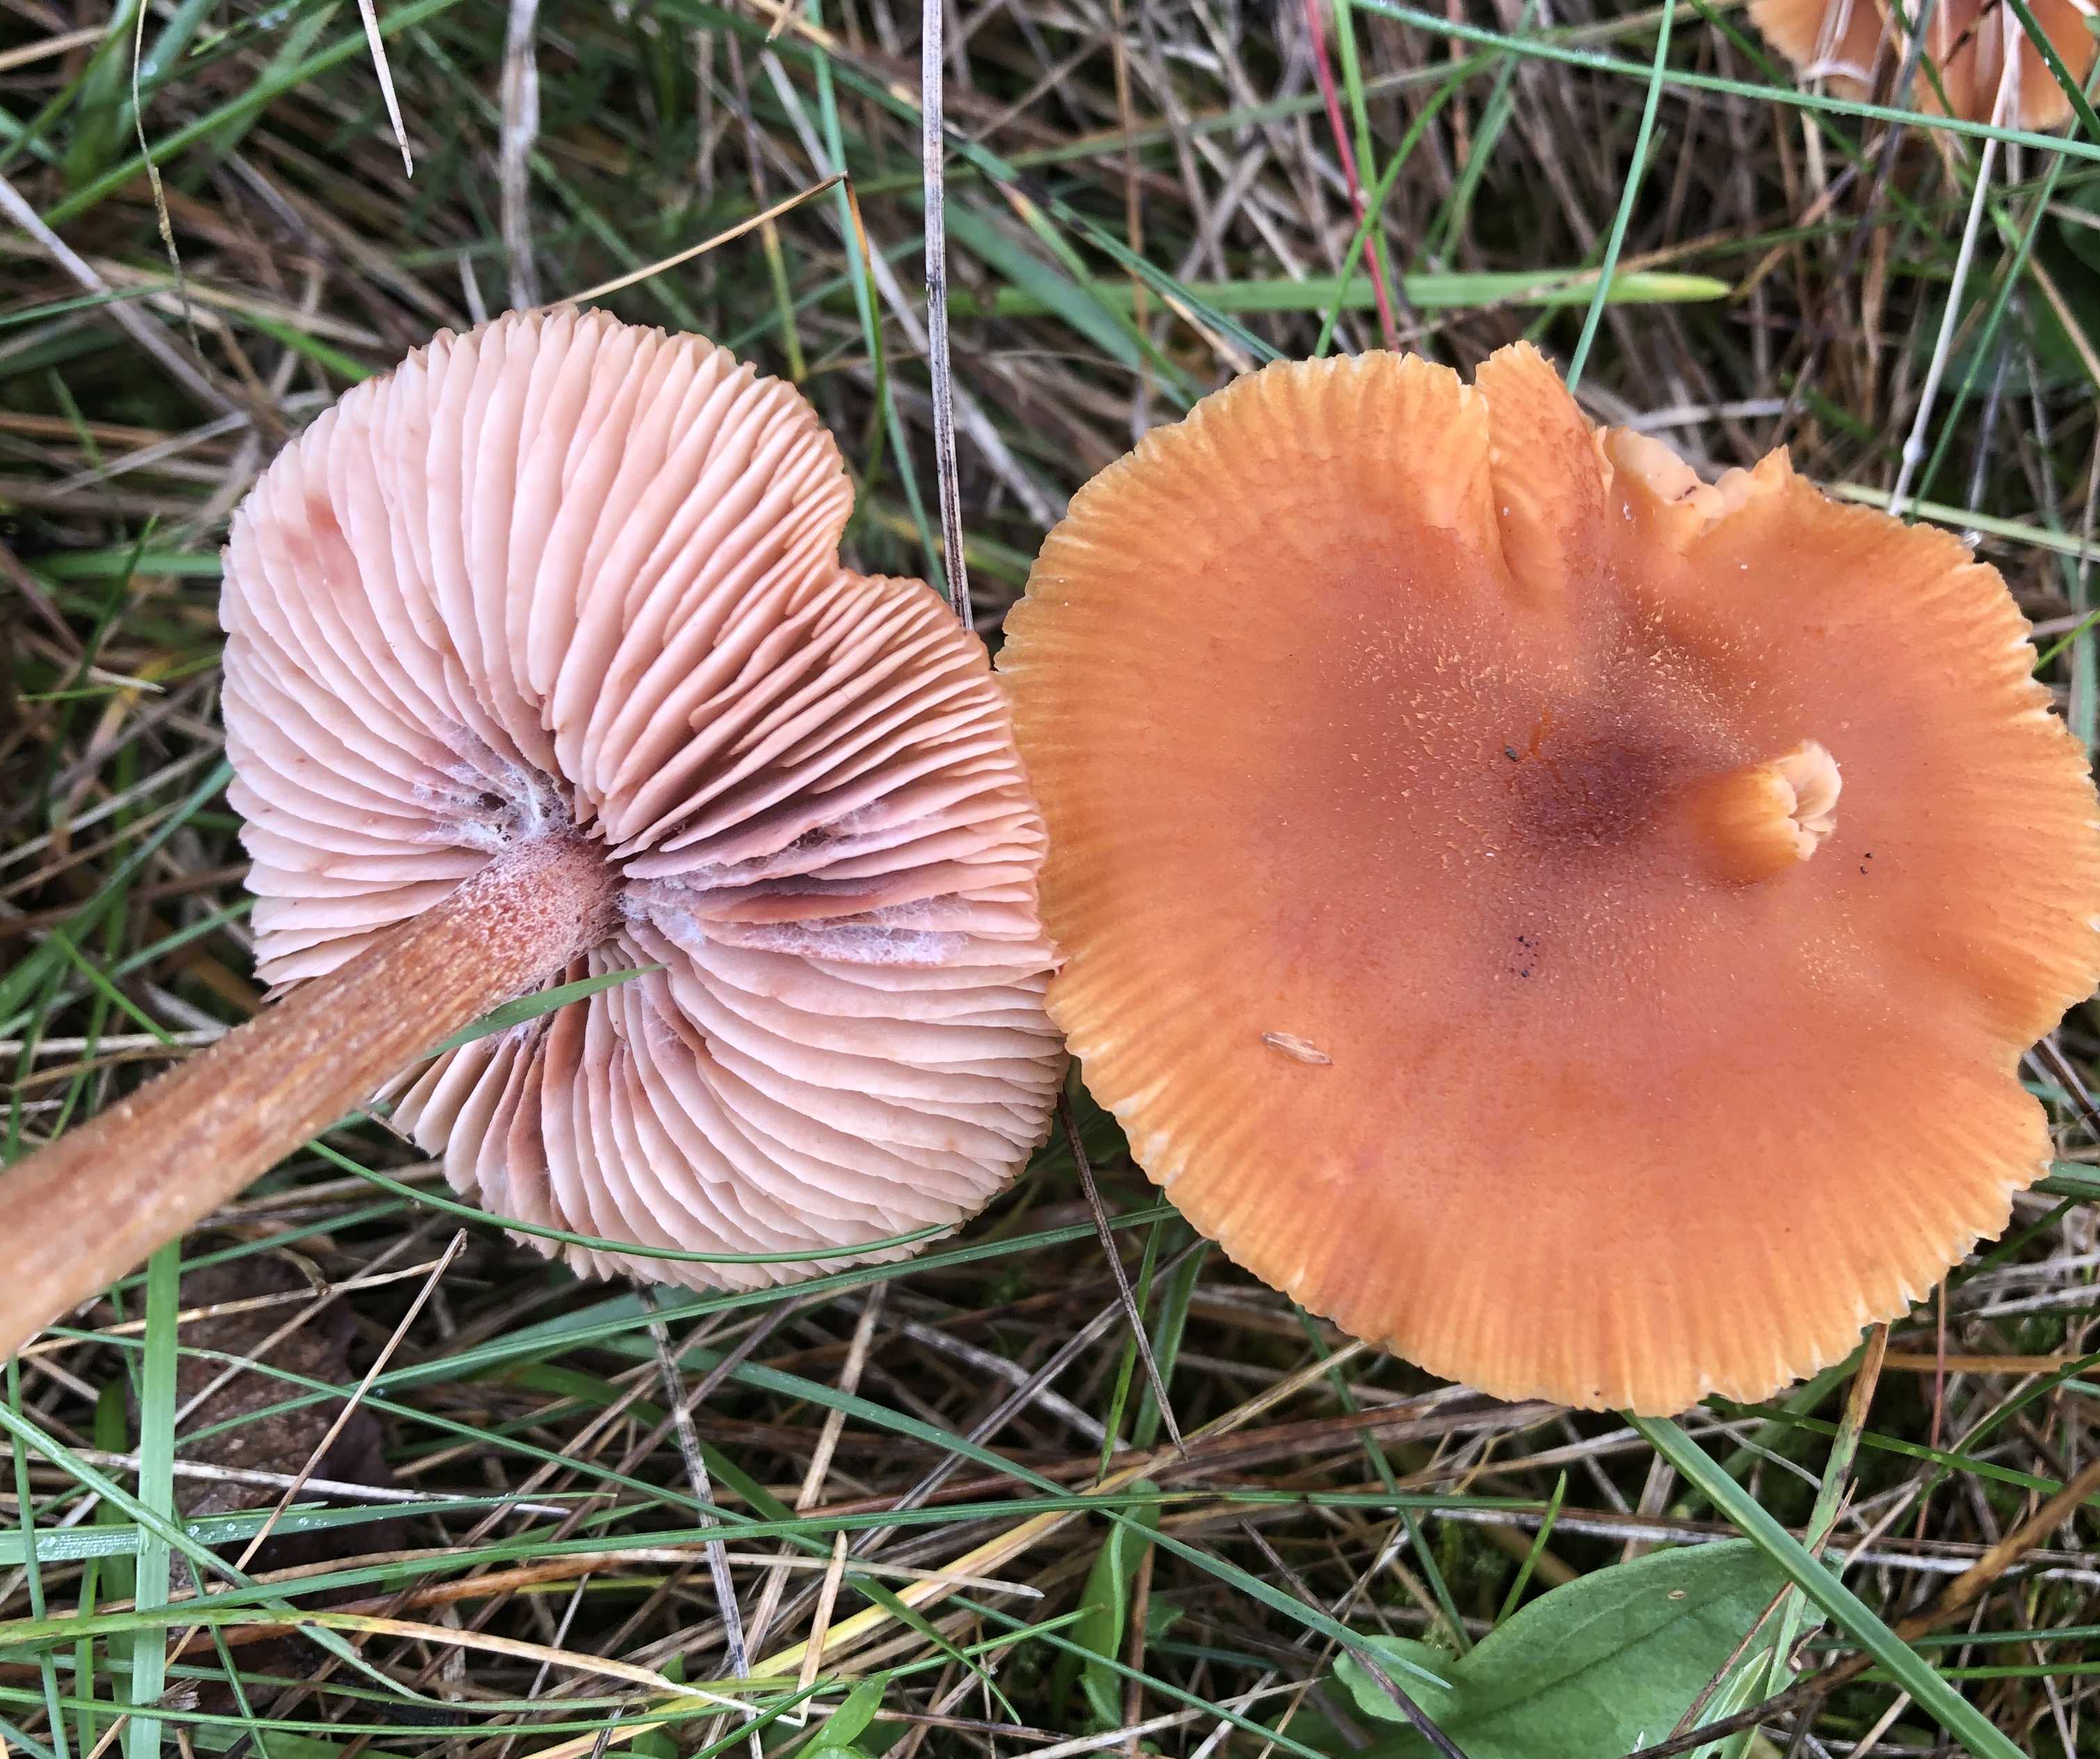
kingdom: Fungi
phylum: Basidiomycota
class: Agaricomycetes
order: Agaricales
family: Hydnangiaceae
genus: Laccaria
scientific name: Laccaria proxima
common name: stor ametysthat
